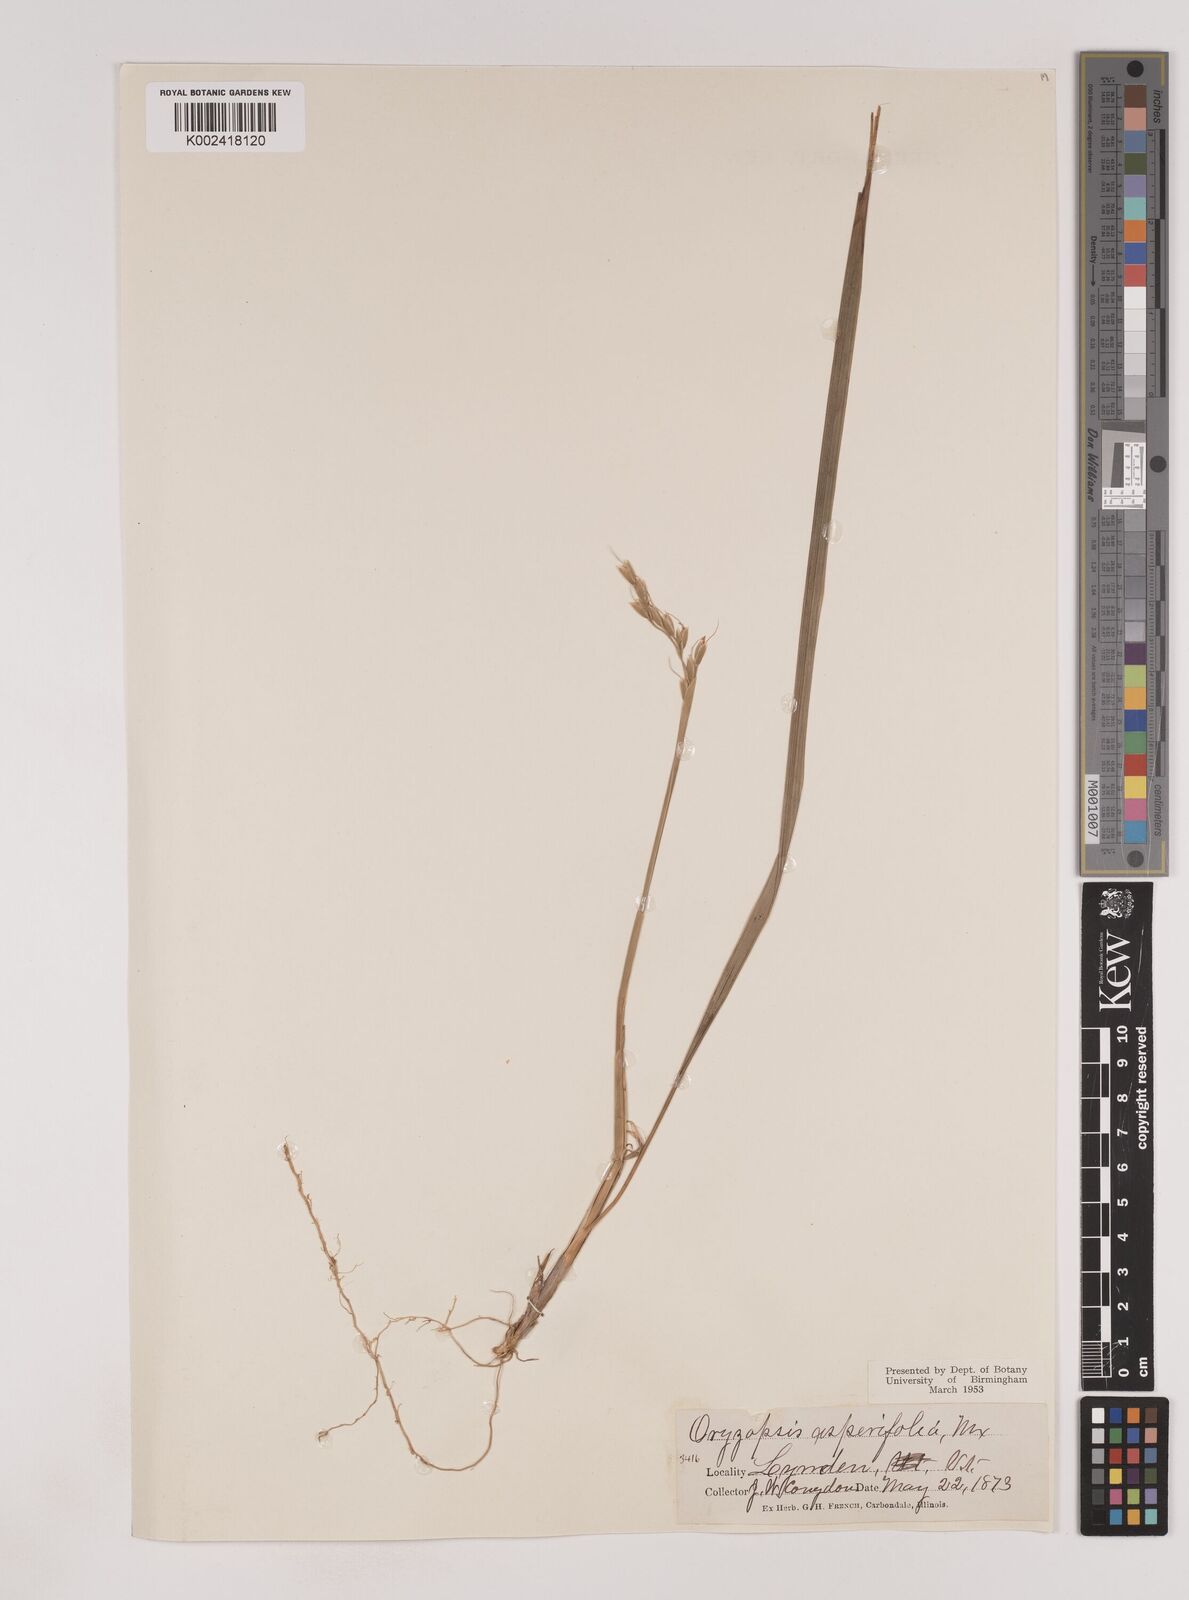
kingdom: Plantae
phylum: Tracheophyta
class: Liliopsida
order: Poales
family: Poaceae
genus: Oryzopsis
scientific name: Oryzopsis asperifolia
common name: Rough-leaved mountain rice
